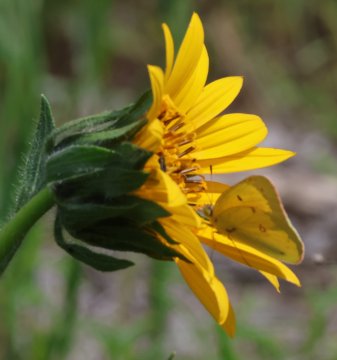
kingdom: Animalia
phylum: Arthropoda
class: Insecta
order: Lepidoptera
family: Pieridae
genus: Colias
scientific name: Colias eurytheme
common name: Orange Sulphur
